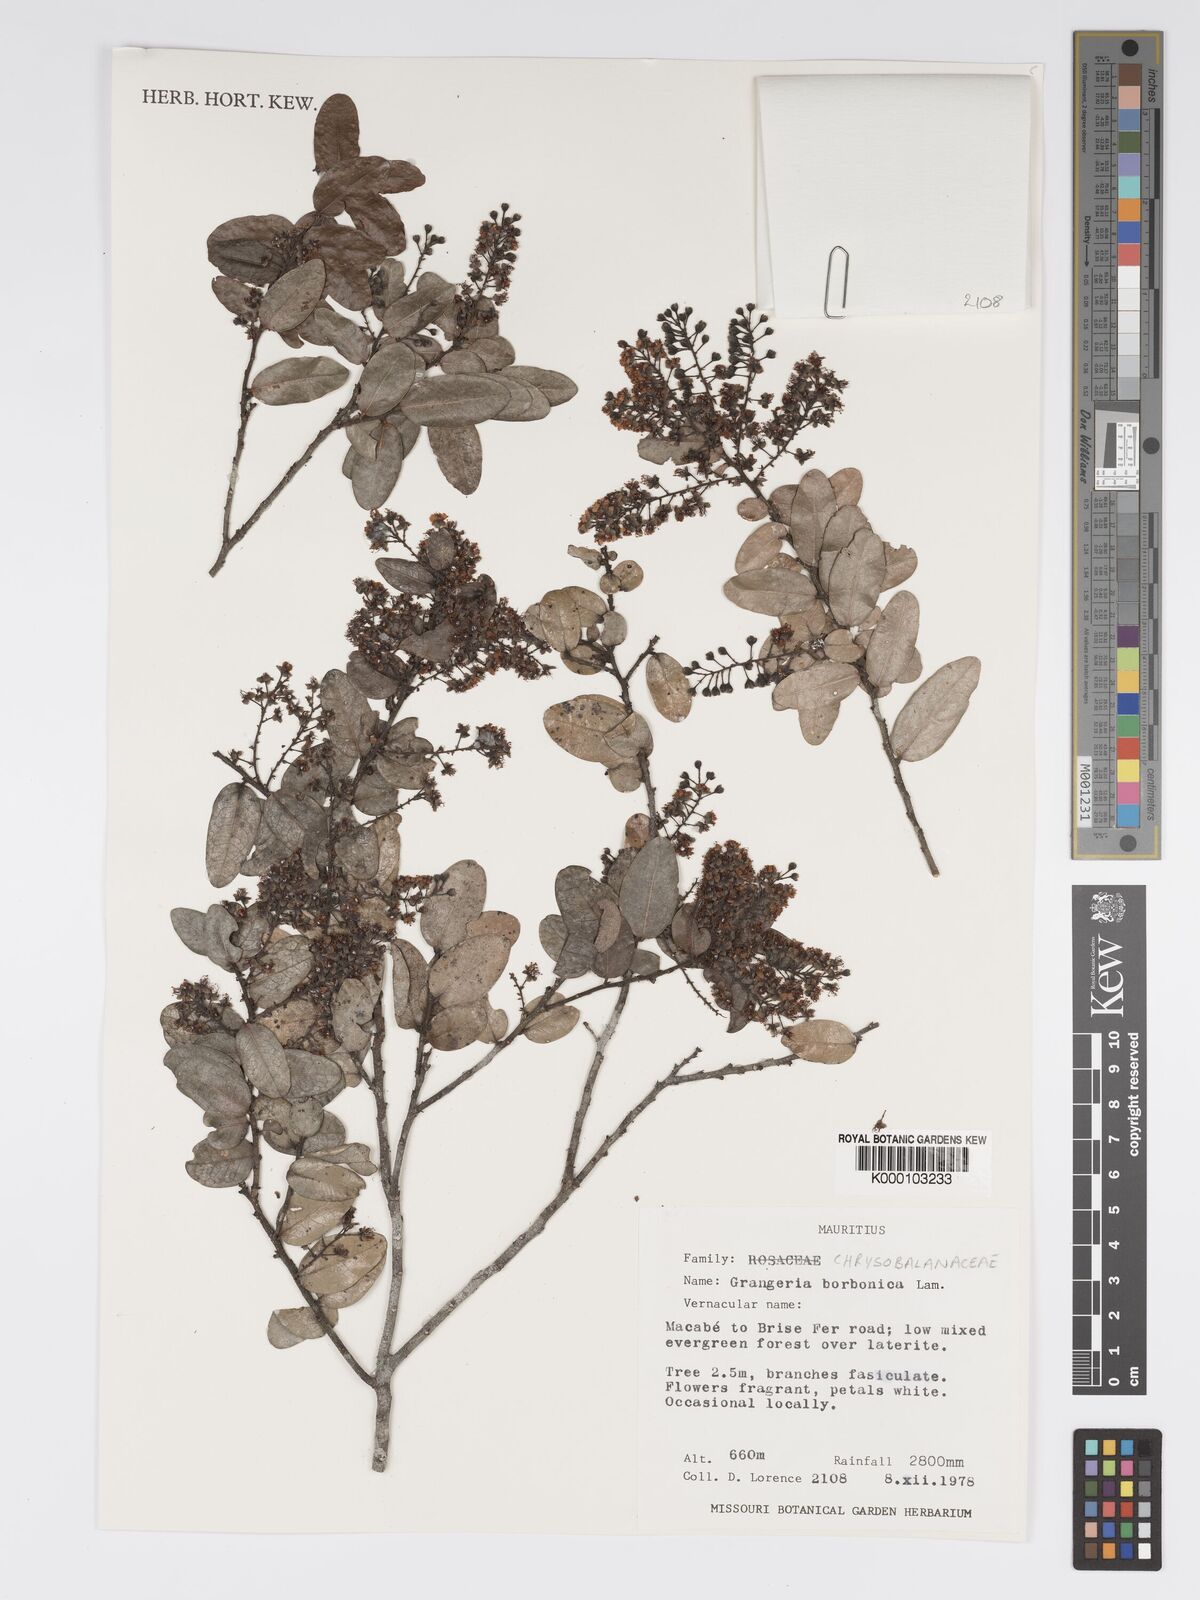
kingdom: Plantae
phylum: Tracheophyta
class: Magnoliopsida
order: Malpighiales
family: Chrysobalanaceae
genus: Grangeria
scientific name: Grangeria borbonica
